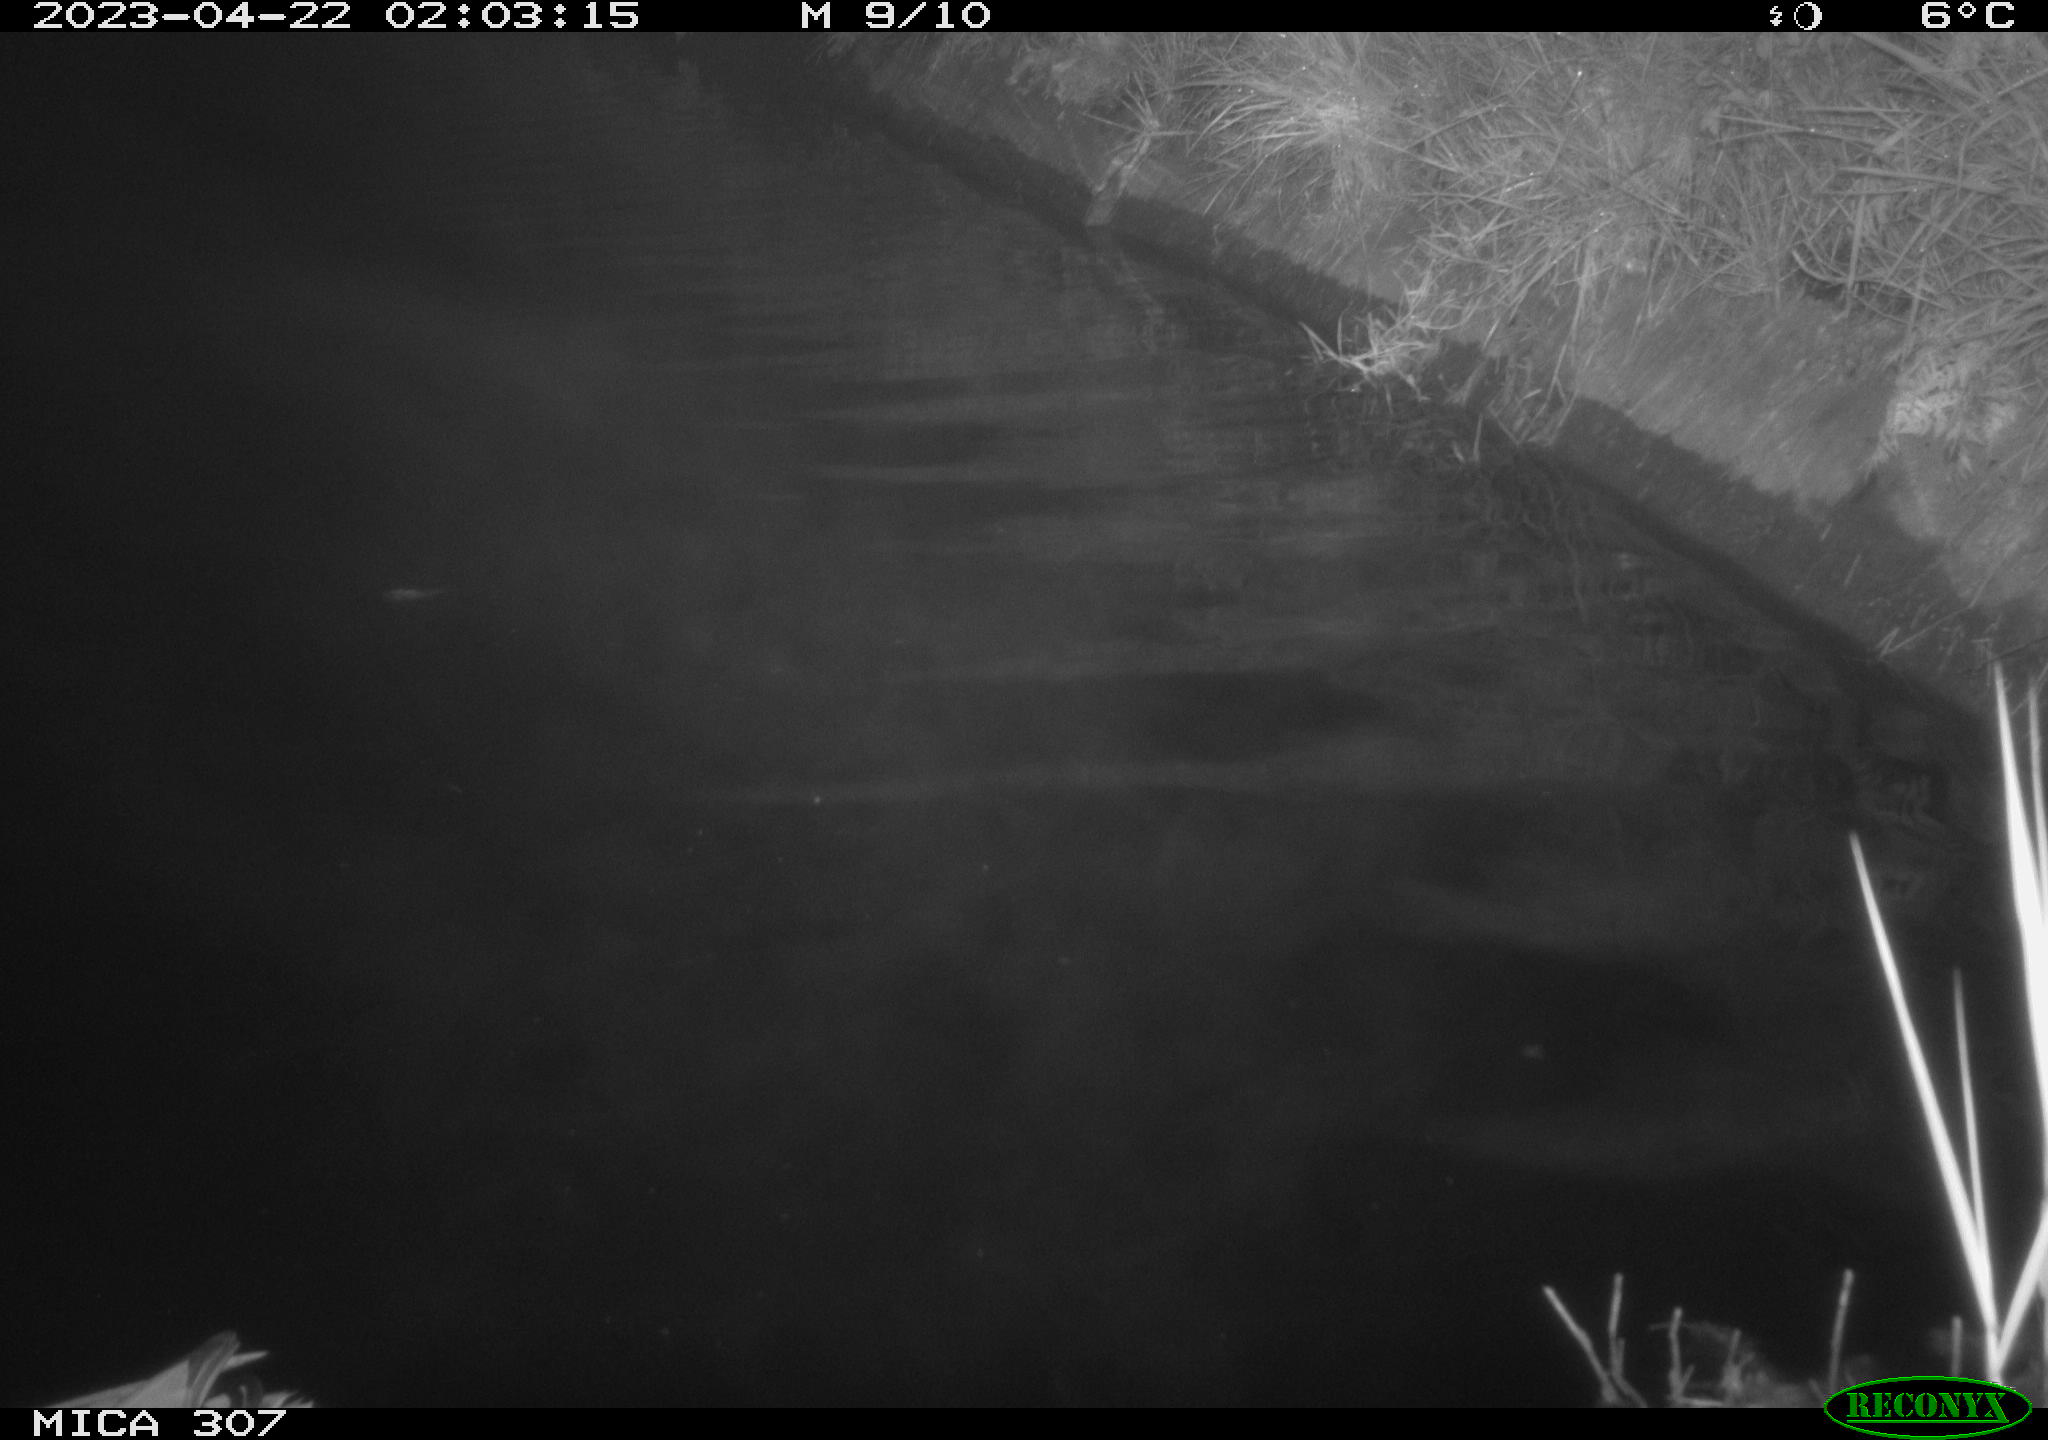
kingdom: Animalia
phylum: Chordata
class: Aves
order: Anseriformes
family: Anatidae
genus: Anas
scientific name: Anas
